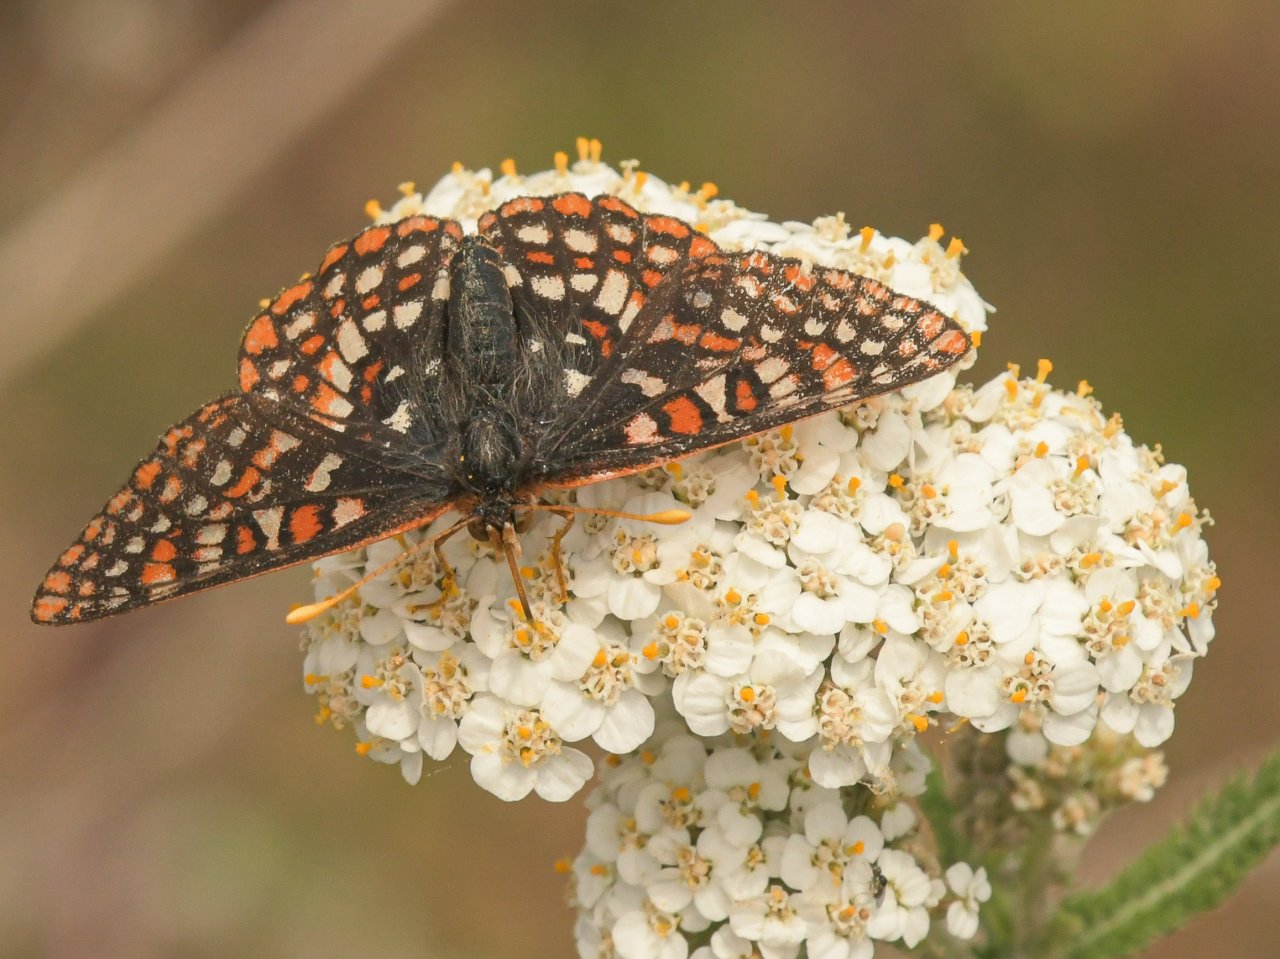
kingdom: Animalia
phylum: Arthropoda
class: Insecta
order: Lepidoptera
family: Nymphalidae
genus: Occidryas
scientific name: Occidryas anicia
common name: Anicia Checkerspot
